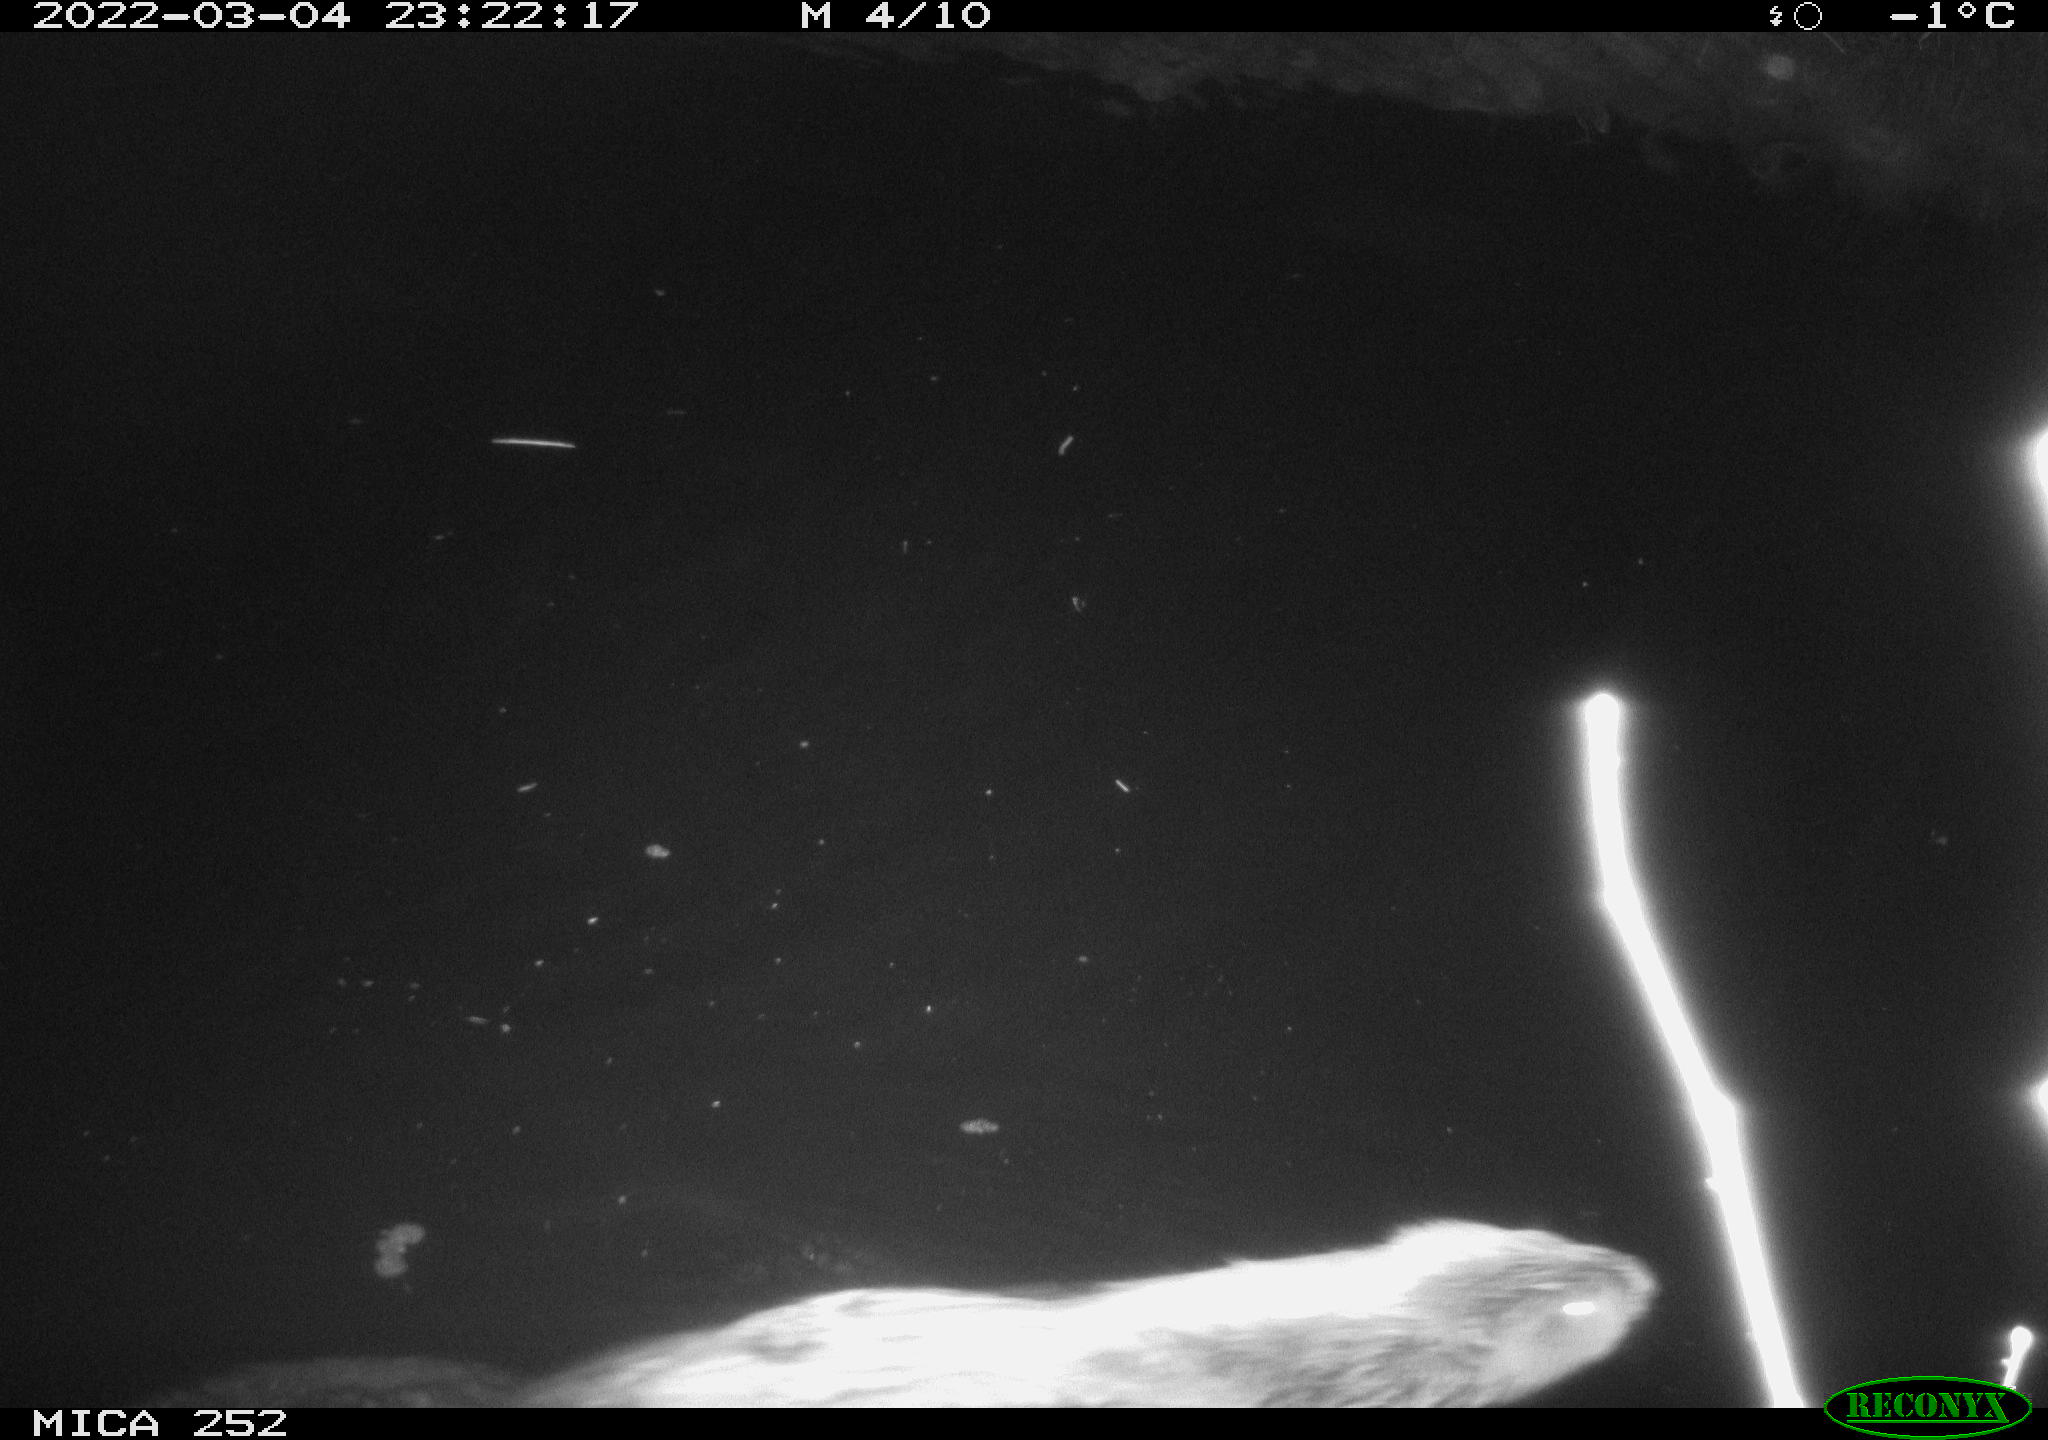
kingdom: Animalia
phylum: Chordata
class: Mammalia
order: Rodentia
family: Castoridae
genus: Castor
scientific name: Castor fiber
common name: Eurasian beaver
